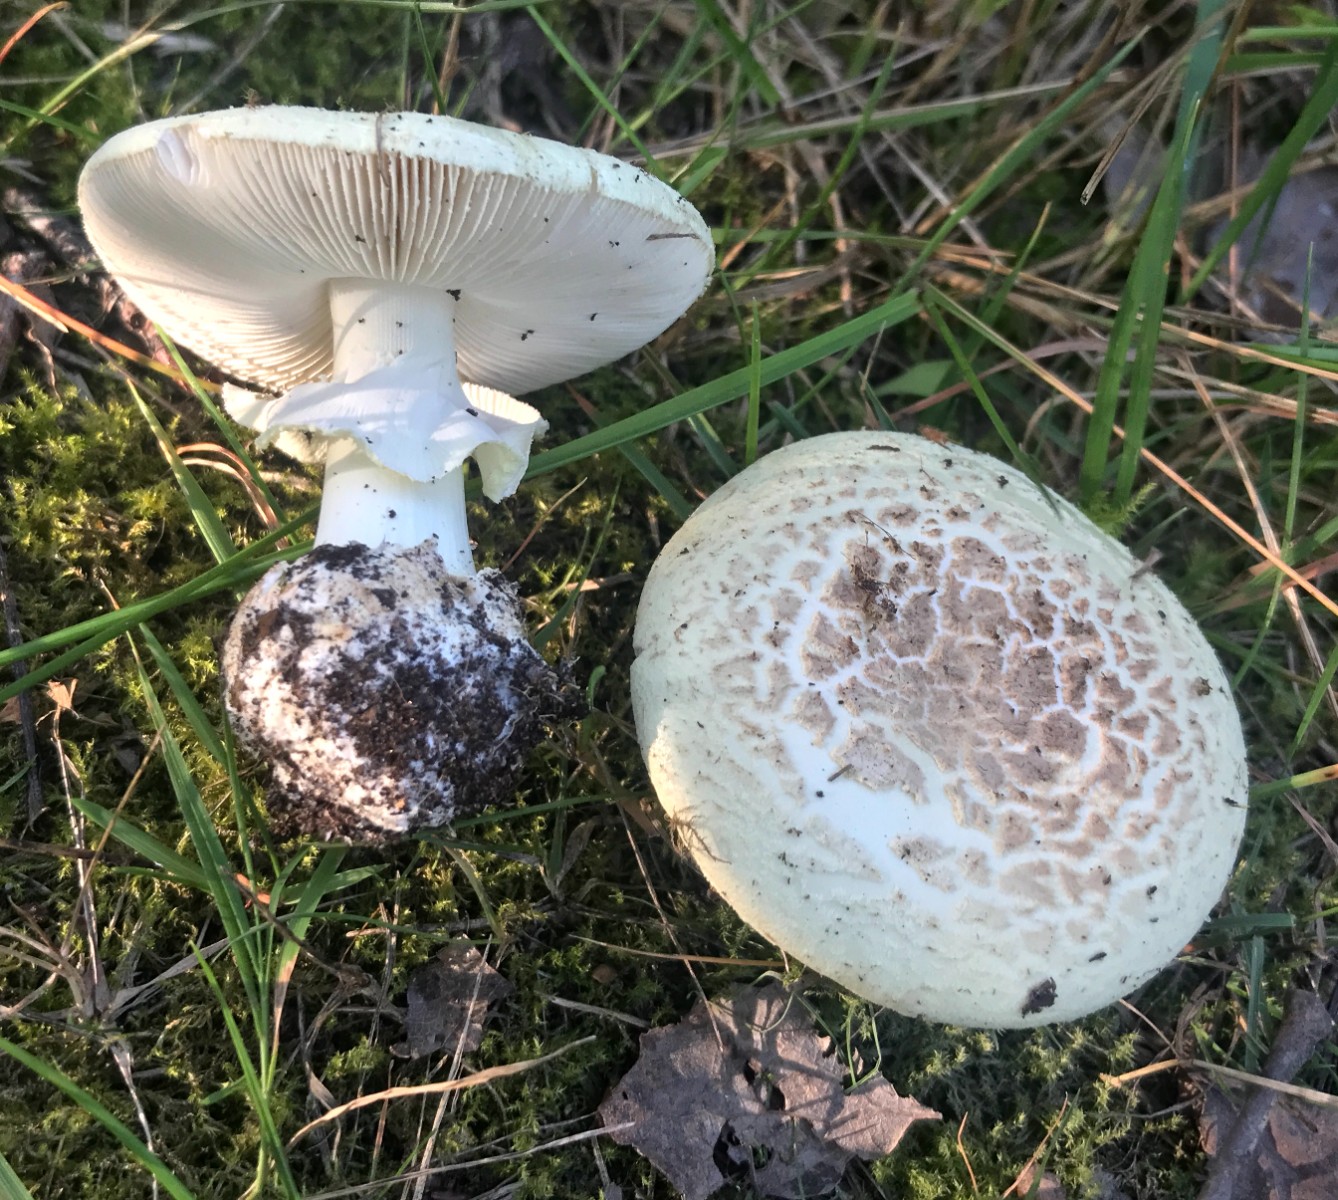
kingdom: Fungi
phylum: Basidiomycota
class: Agaricomycetes
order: Agaricales
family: Amanitaceae
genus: Amanita
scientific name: Amanita citrina
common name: kugleknoldet fluesvamp
